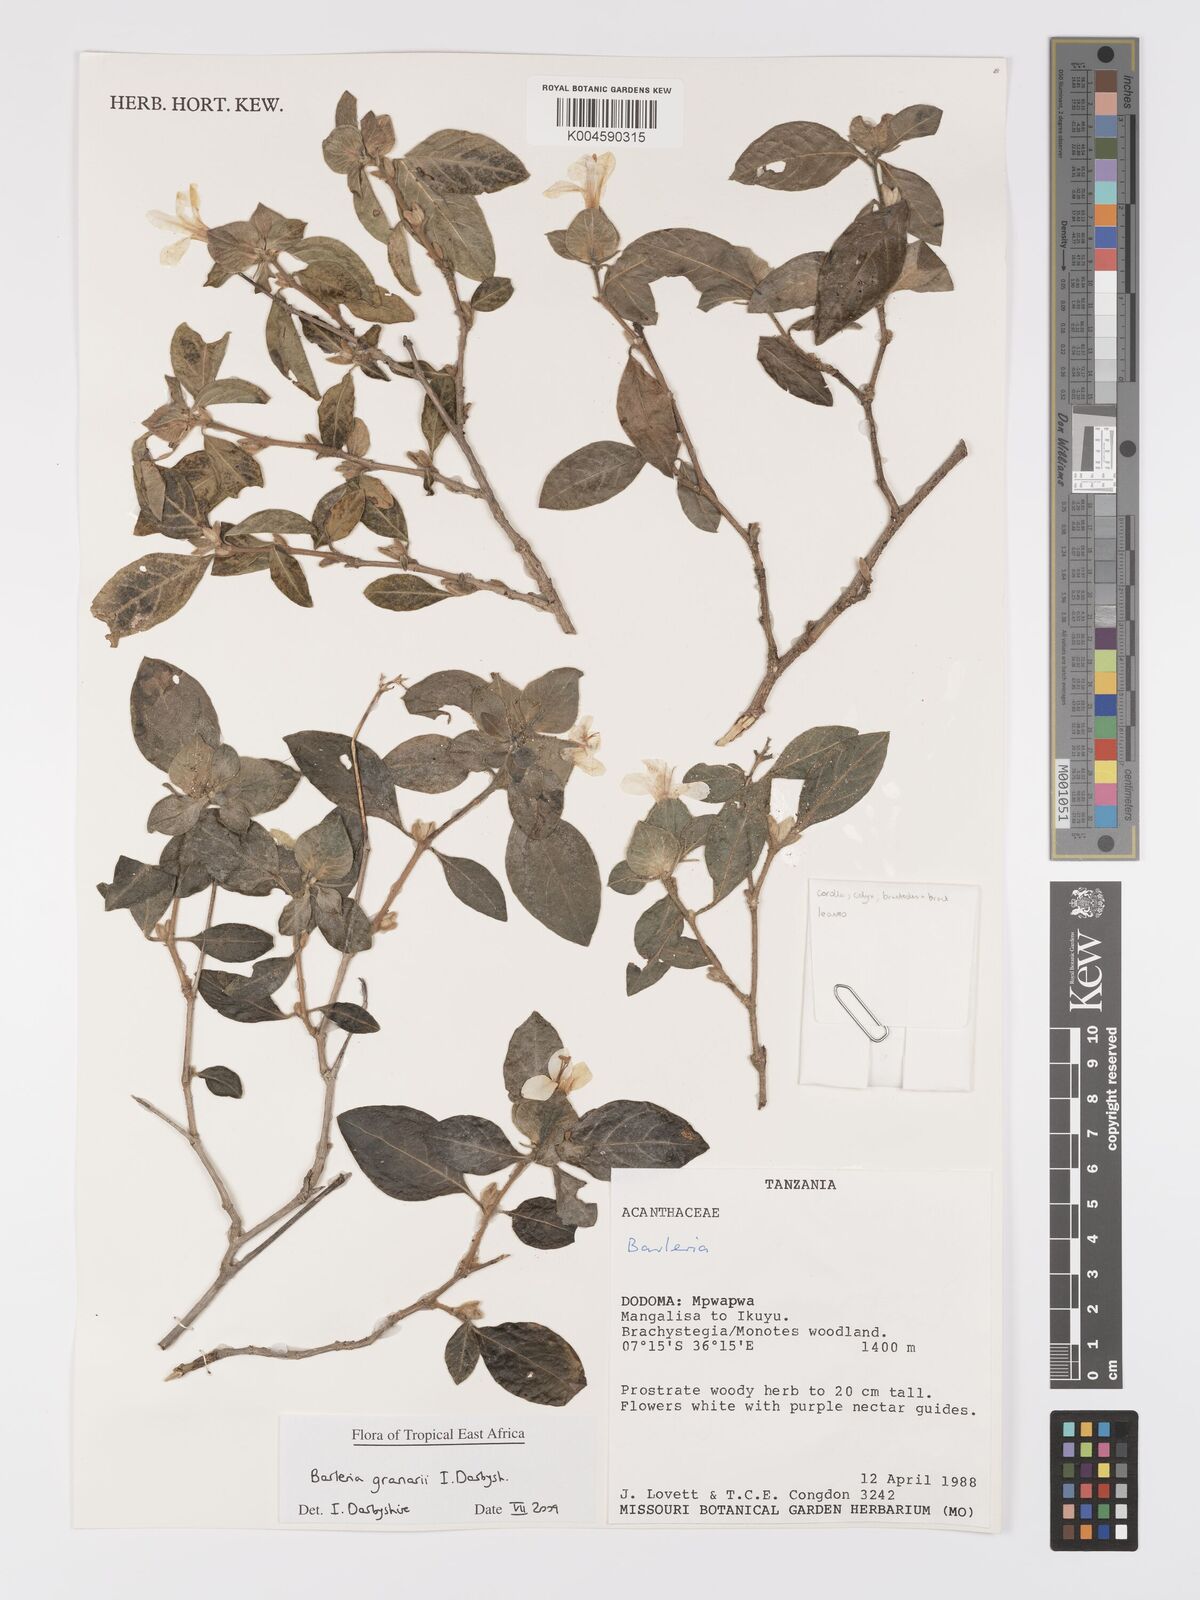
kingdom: Plantae
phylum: Tracheophyta
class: Magnoliopsida
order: Lamiales
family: Acanthaceae
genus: Barleria
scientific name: Barleria granarii
